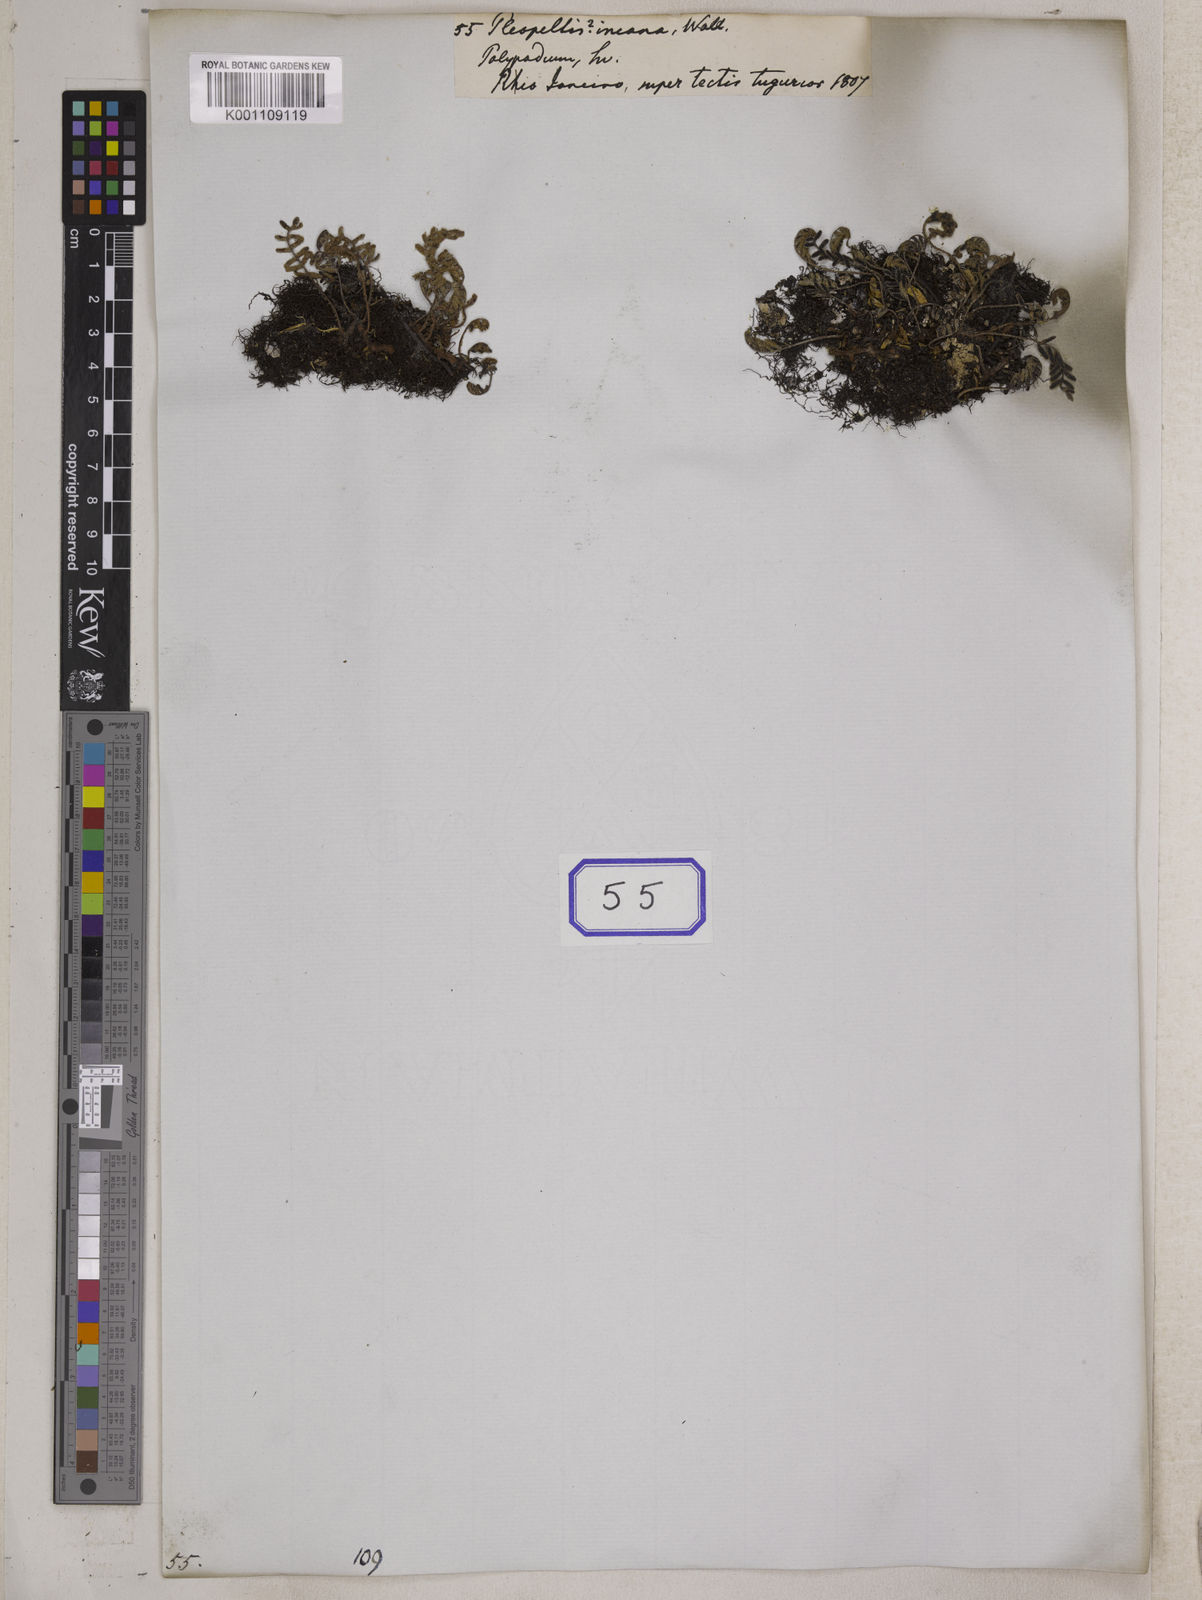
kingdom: Plantae
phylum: Tracheophyta
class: Polypodiopsida
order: Polypodiales
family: Polypodiaceae
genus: Pleopeltis
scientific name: Pleopeltis polypodioides
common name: Resurrection fern
